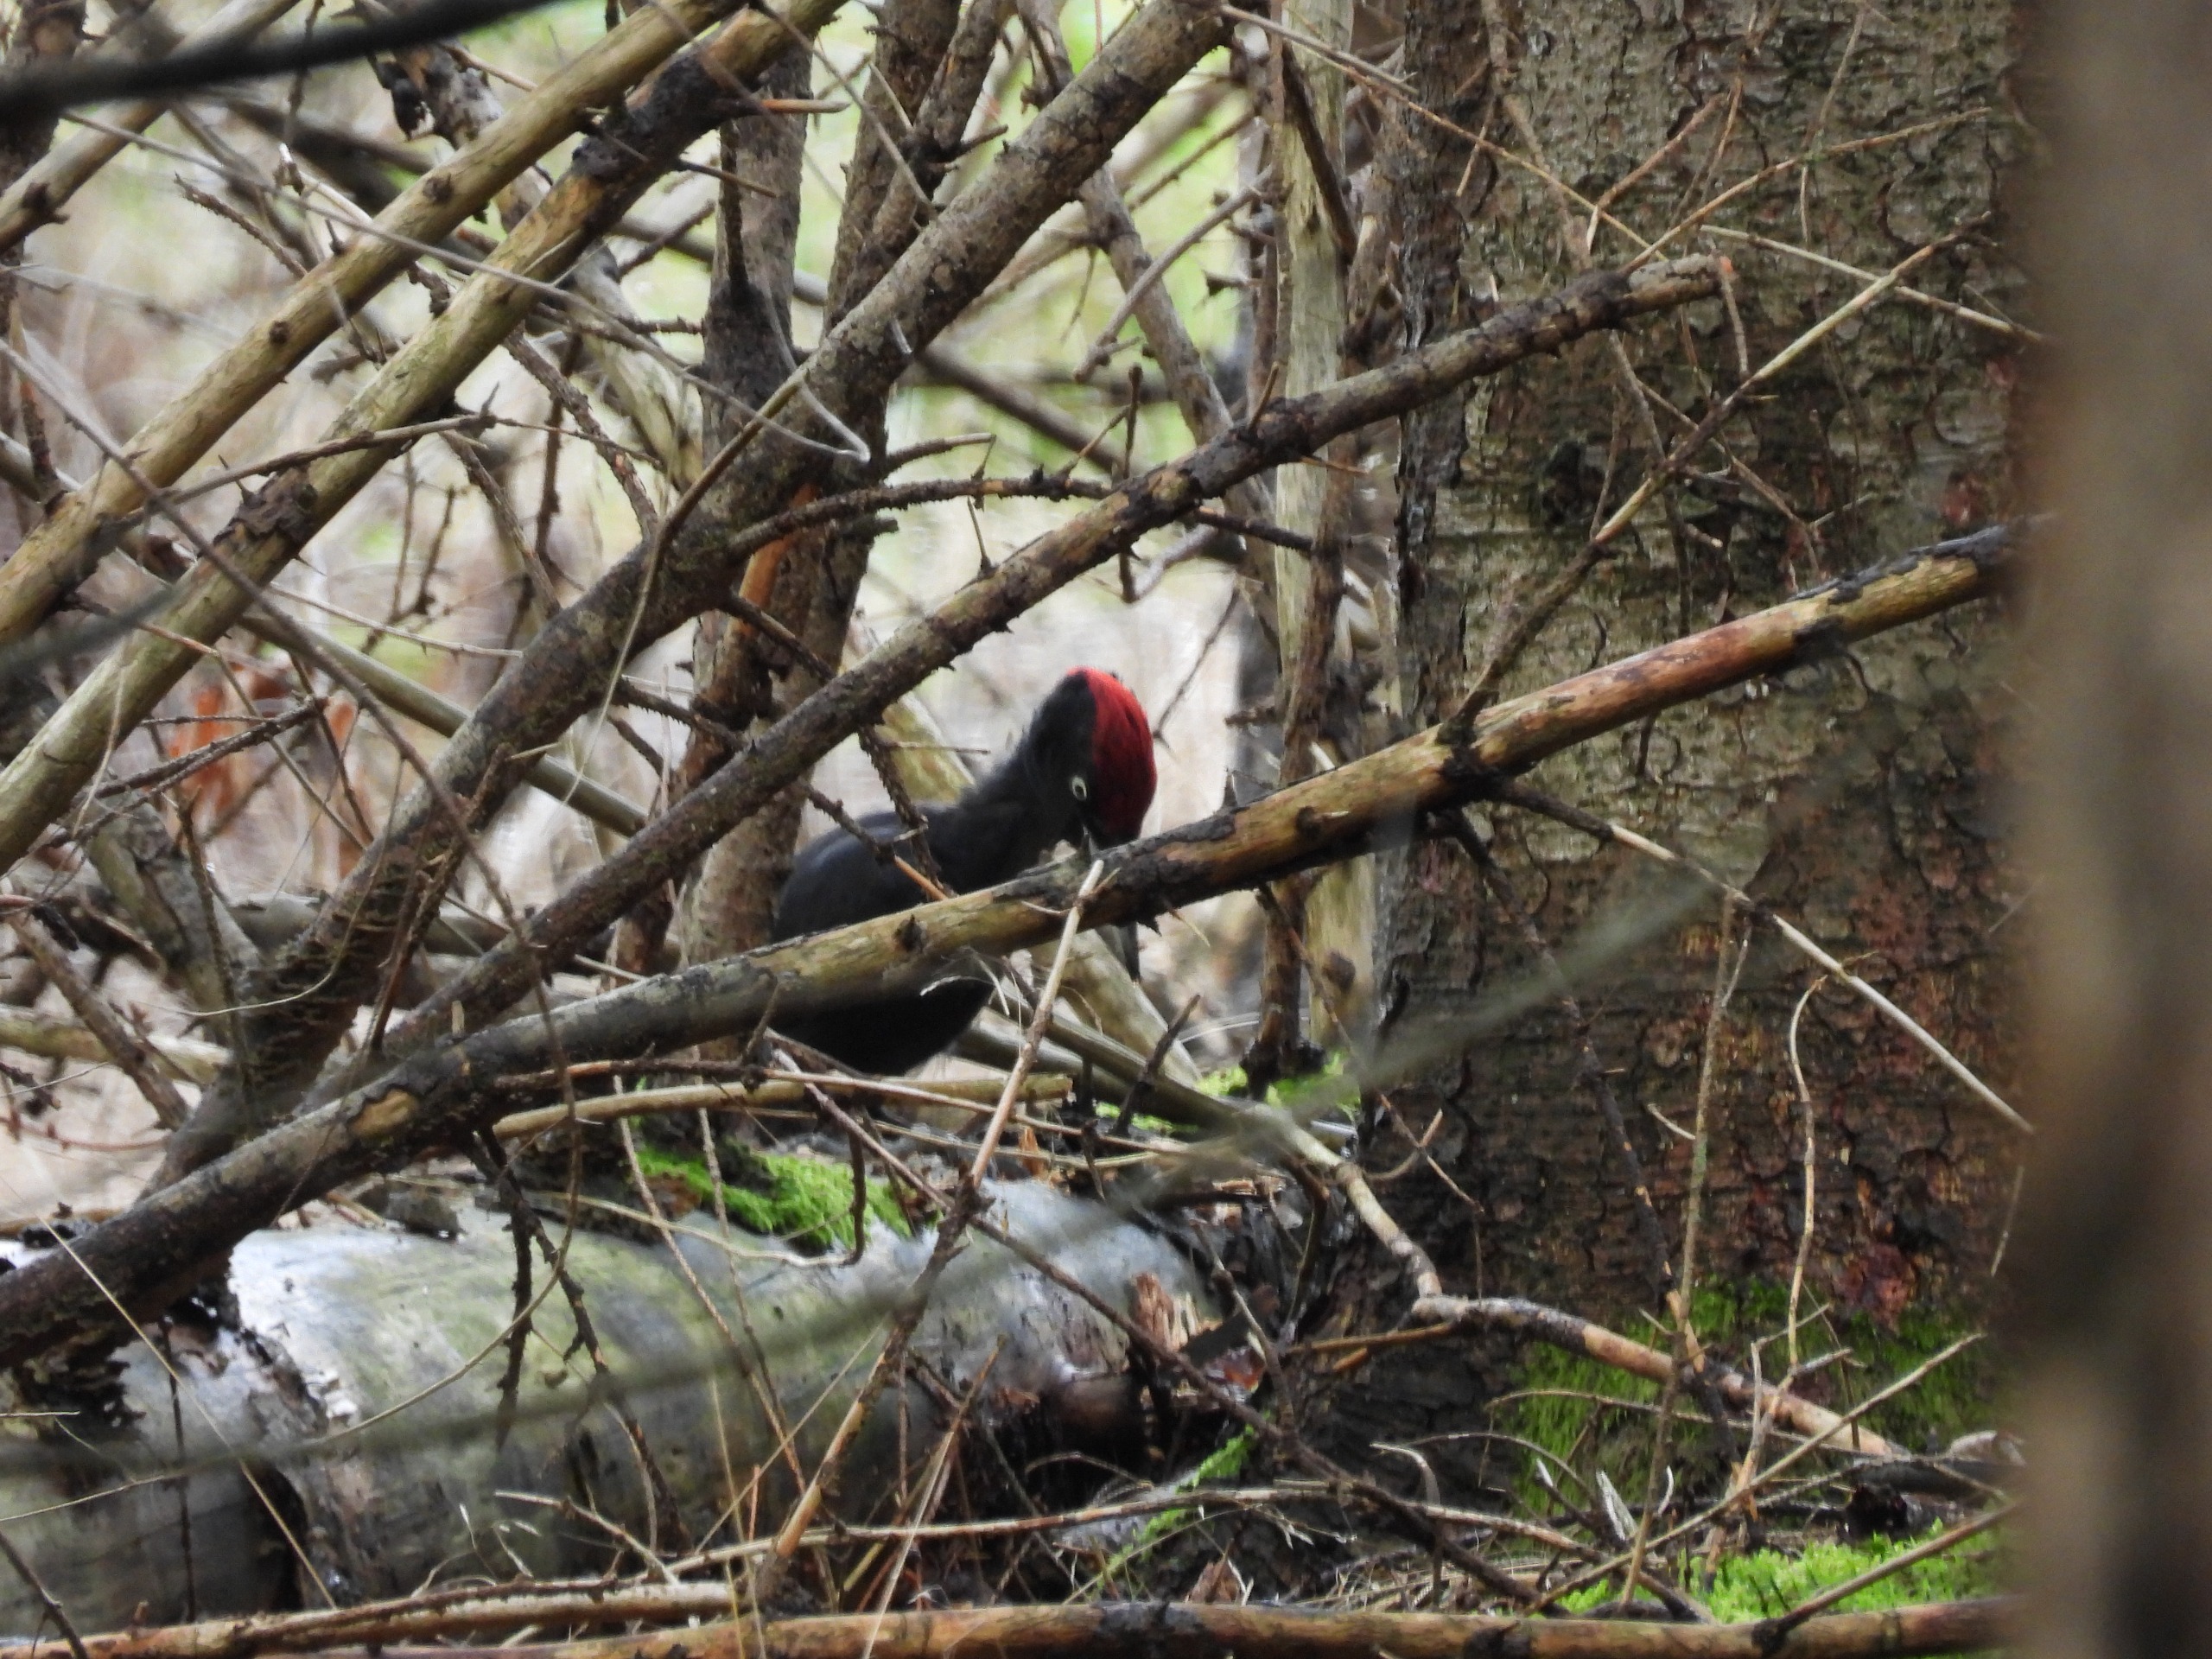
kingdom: Animalia
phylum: Chordata
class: Aves
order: Piciformes
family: Picidae
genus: Dryocopus
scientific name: Dryocopus martius
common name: Sortspætte
